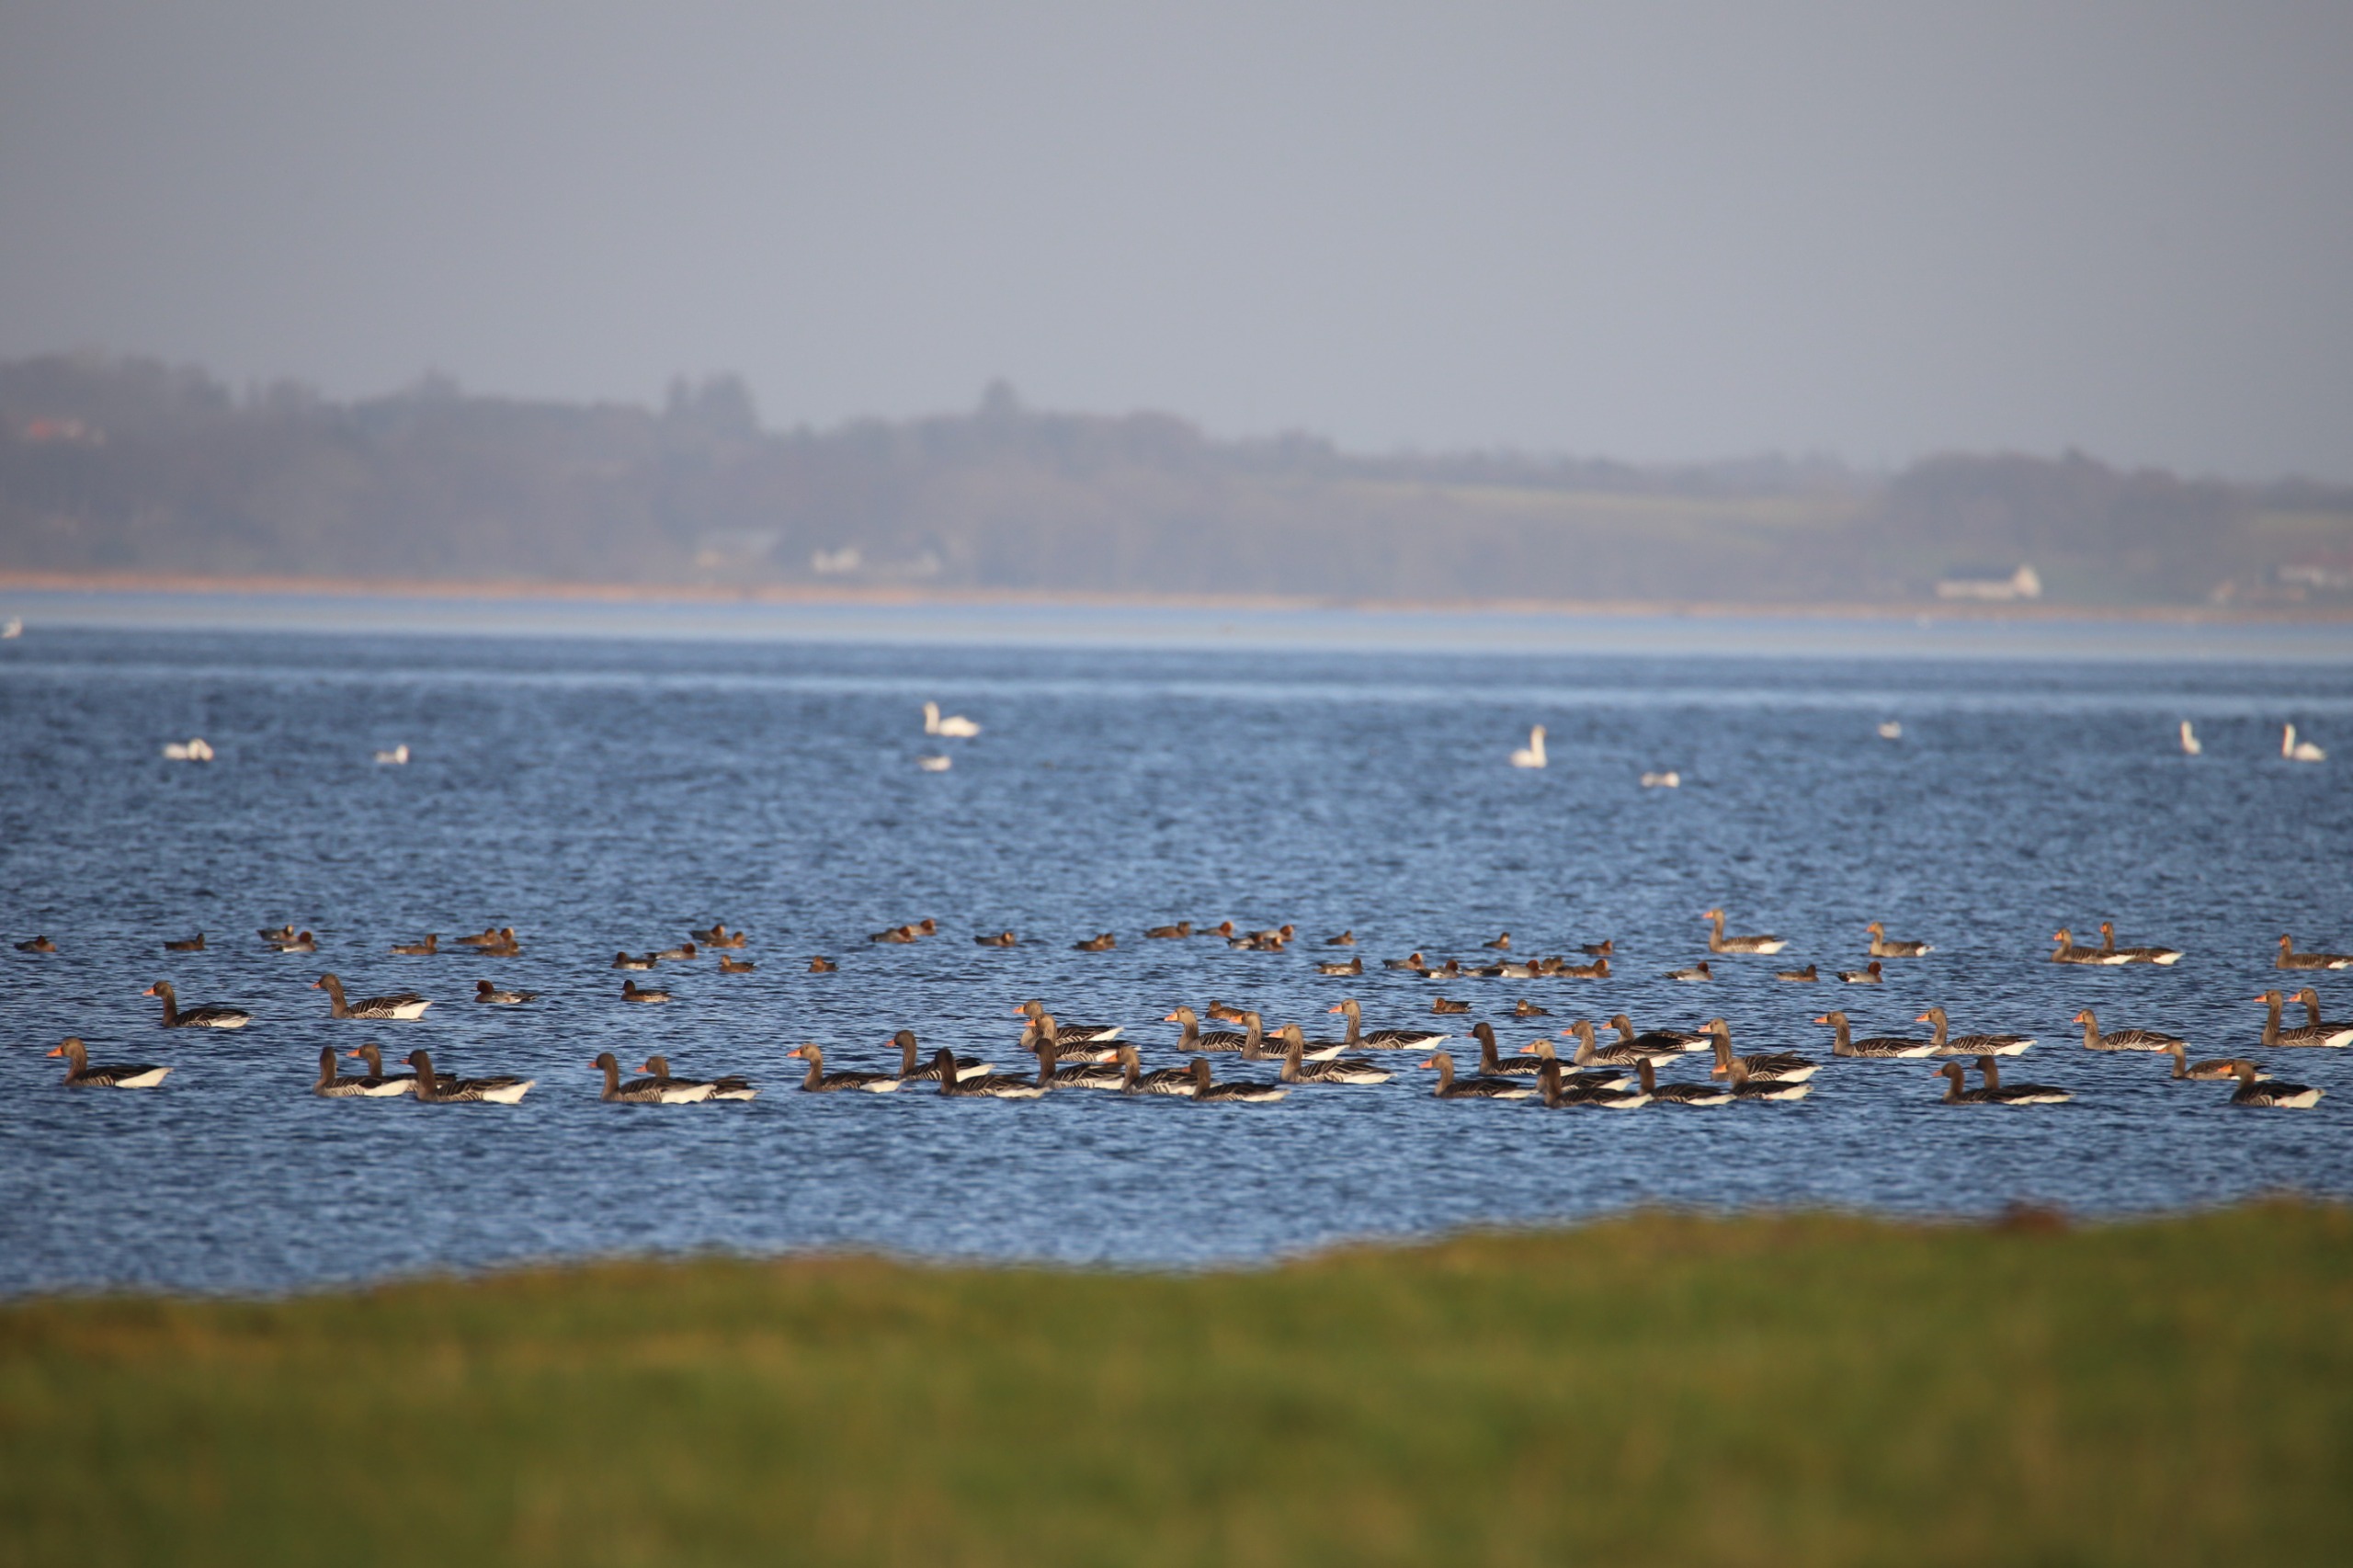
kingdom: Animalia
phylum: Chordata
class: Aves
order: Anseriformes
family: Anatidae
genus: Anser
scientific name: Anser anser
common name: Grågås
